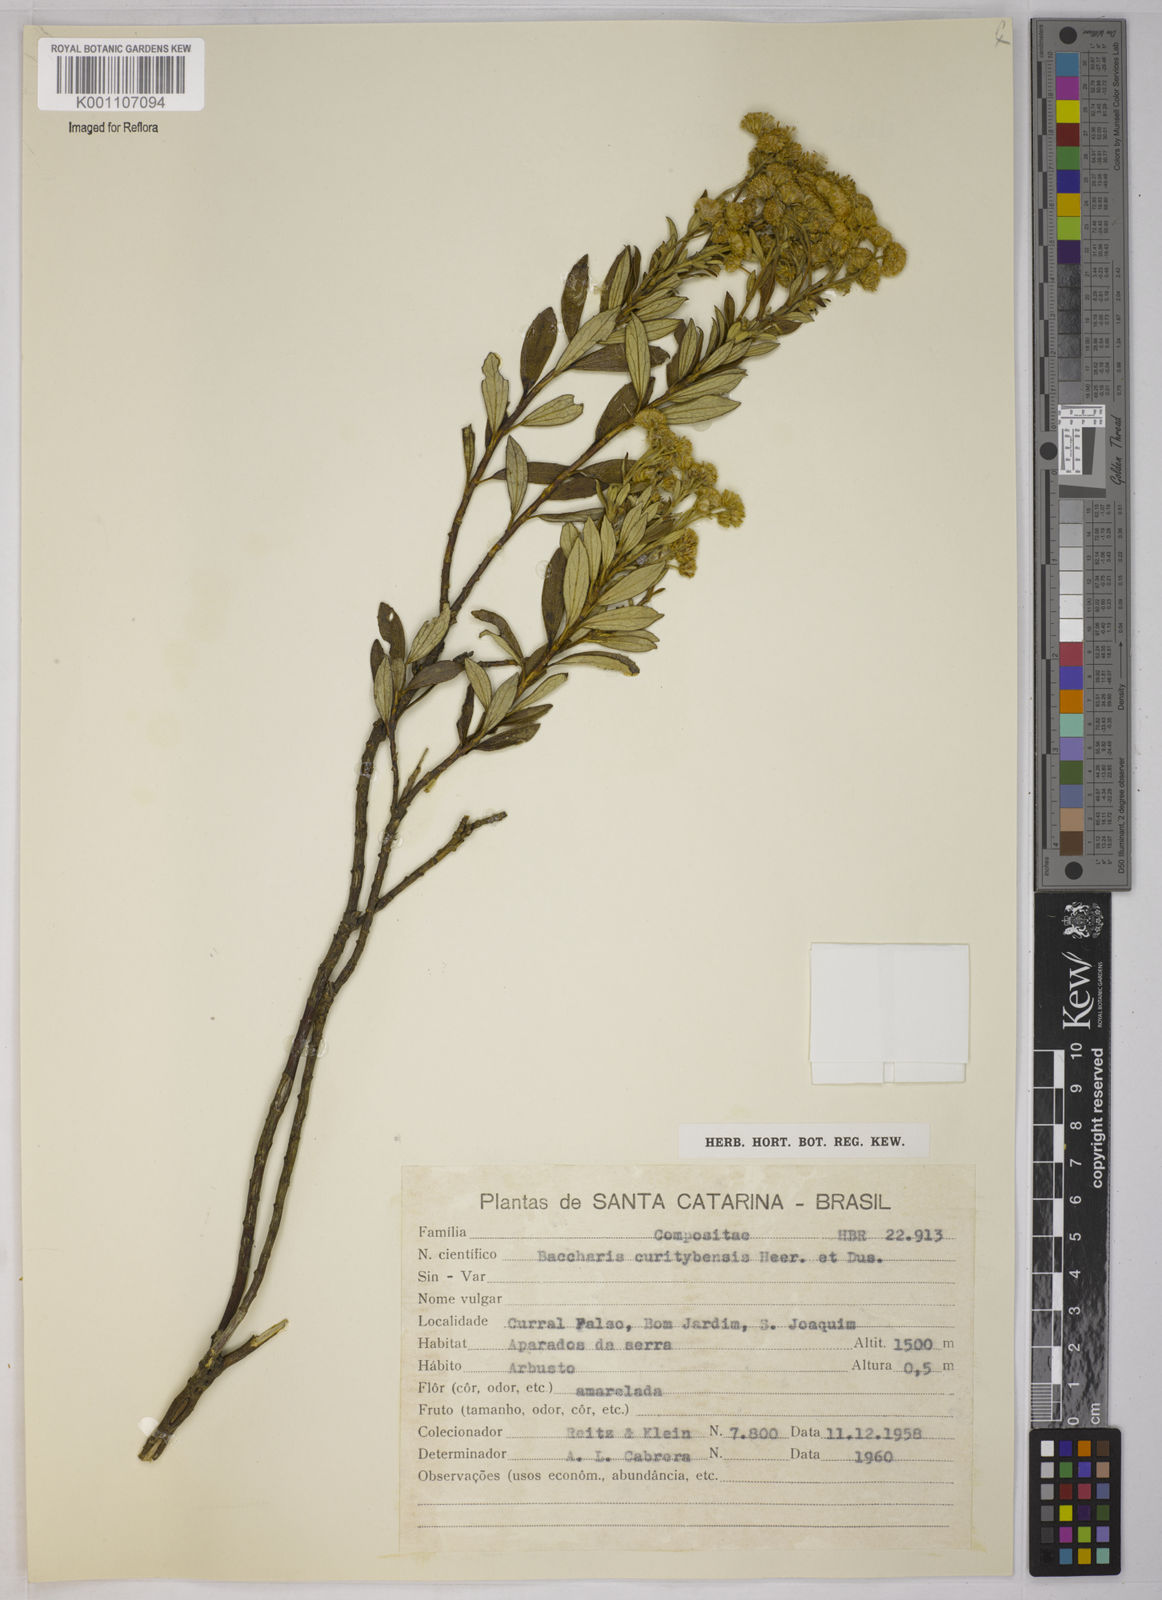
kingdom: Plantae
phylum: Tracheophyta
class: Magnoliopsida
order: Asterales
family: Asteraceae
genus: Baccharis
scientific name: Baccharis curitybensis
